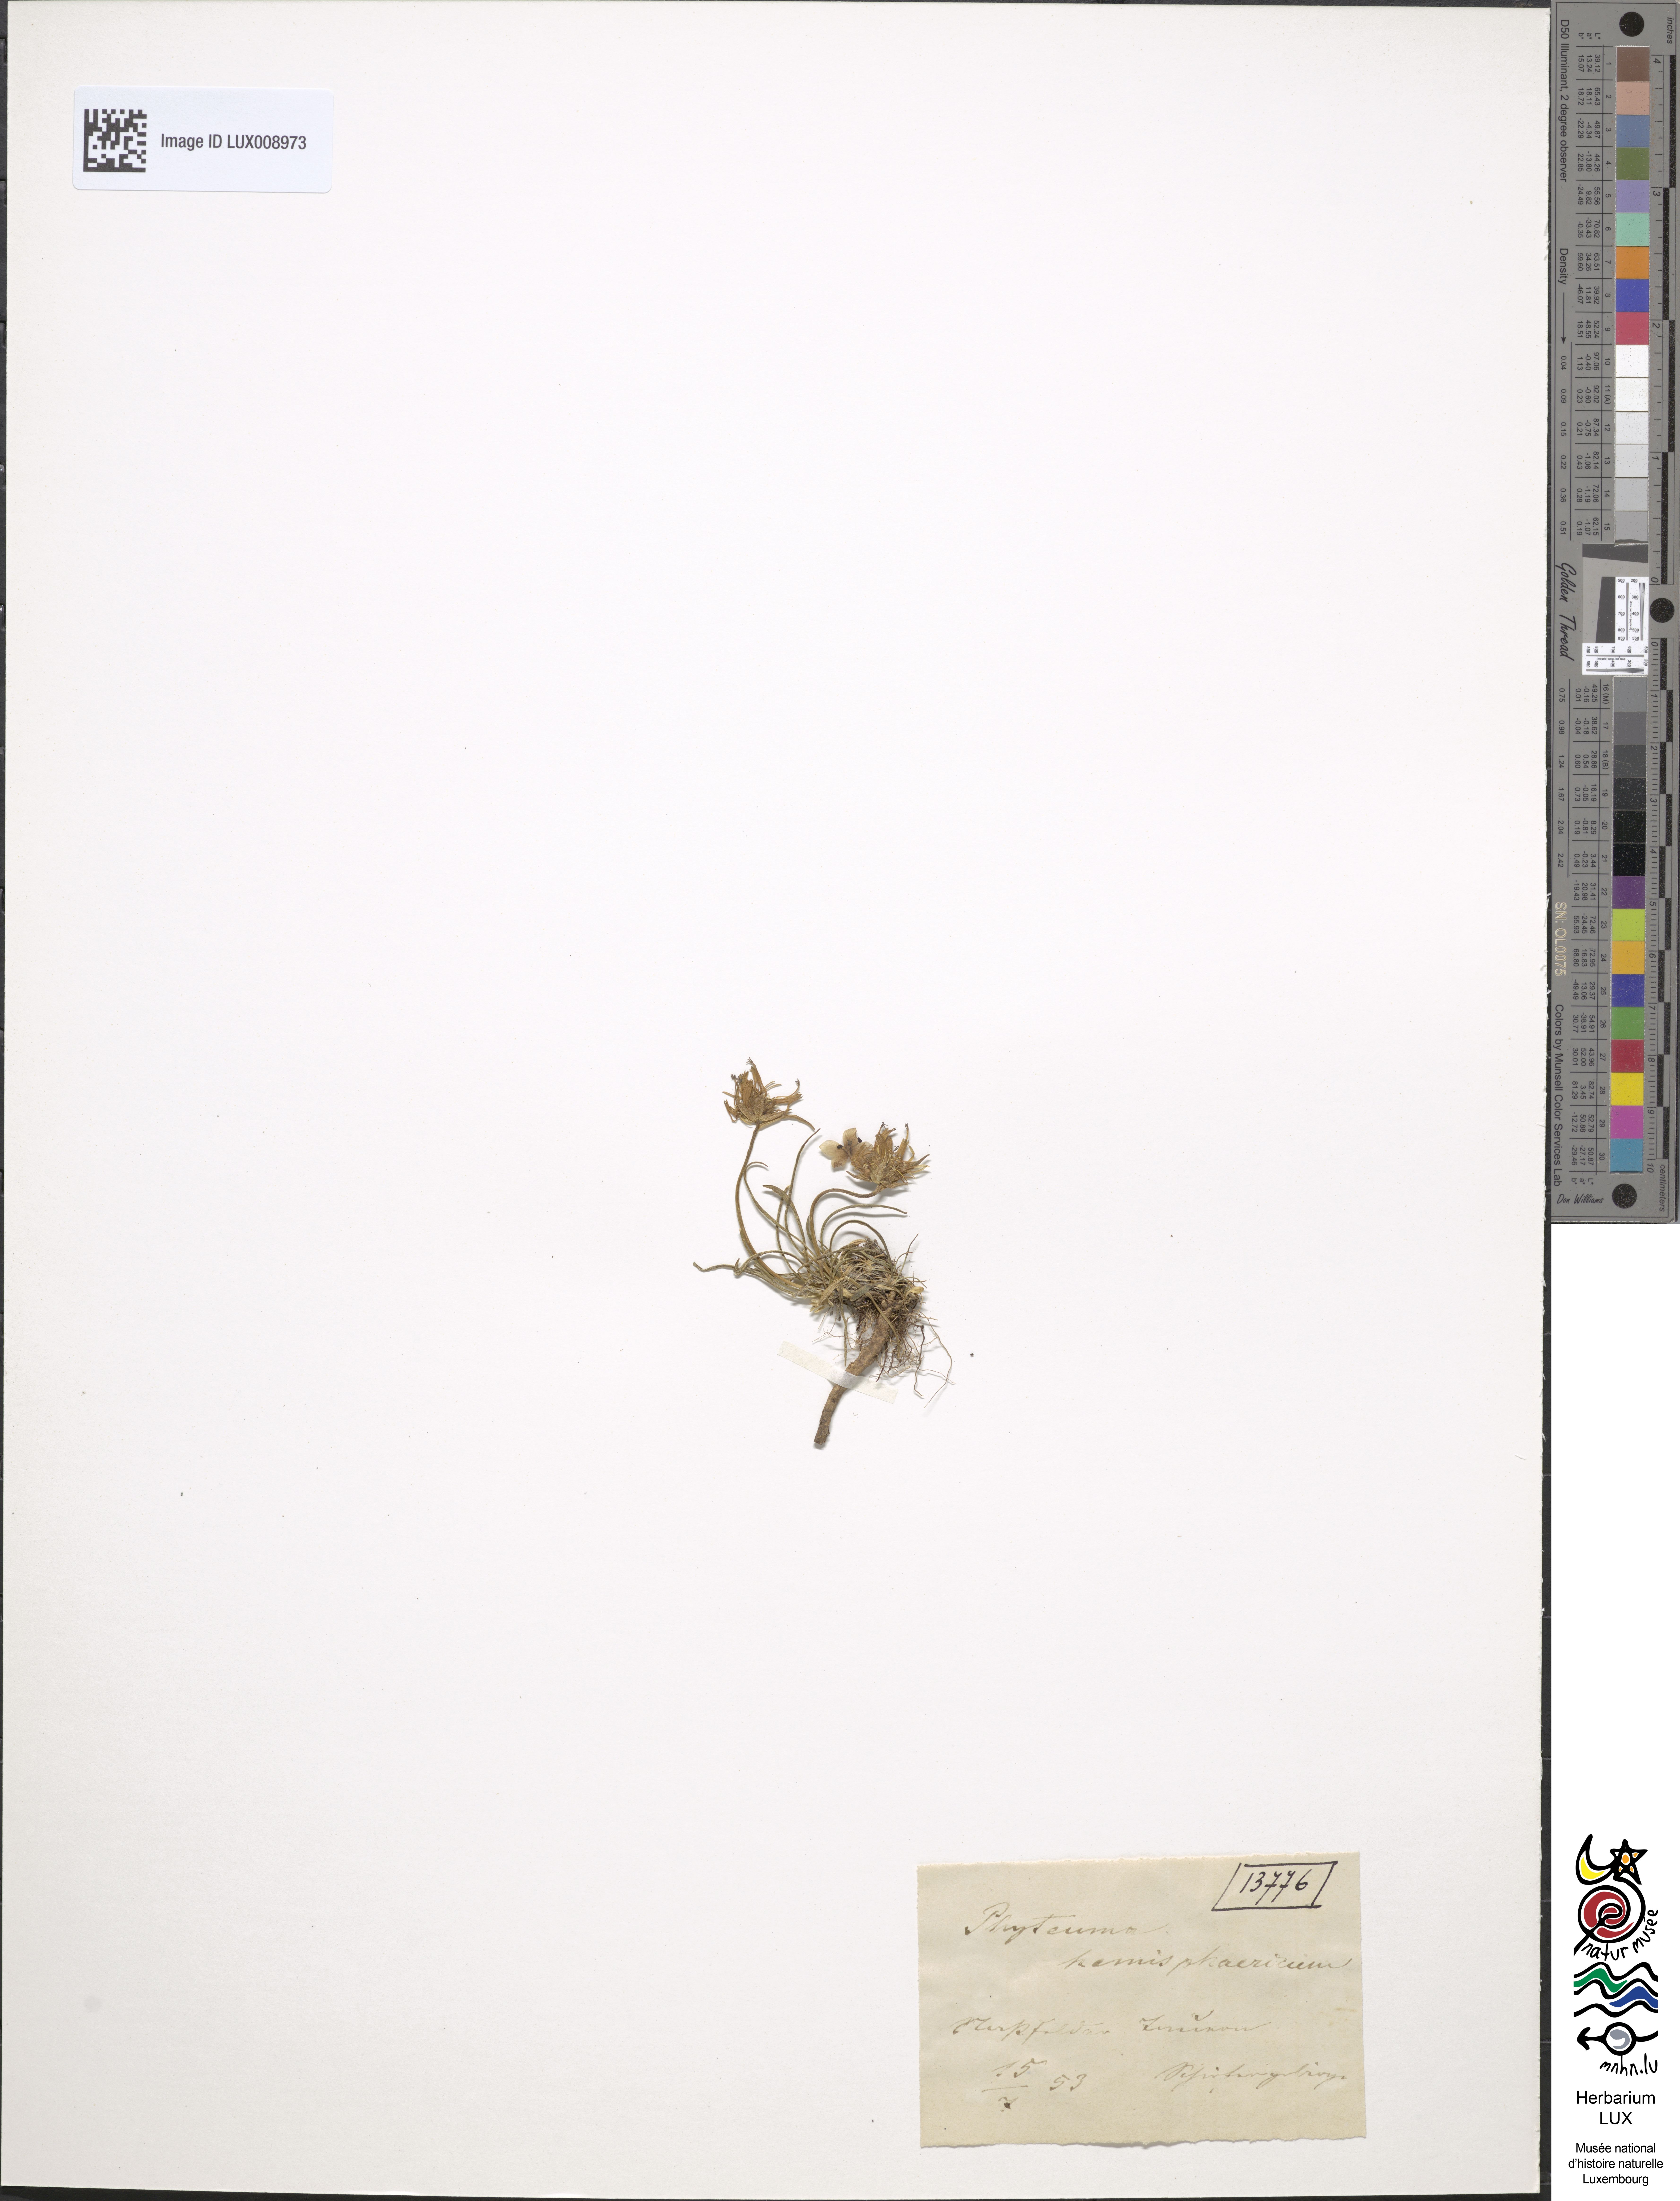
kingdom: Plantae
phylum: Tracheophyta
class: Magnoliopsida
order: Asterales
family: Campanulaceae
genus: Phyteuma
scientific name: Phyteuma hemisphaericum
